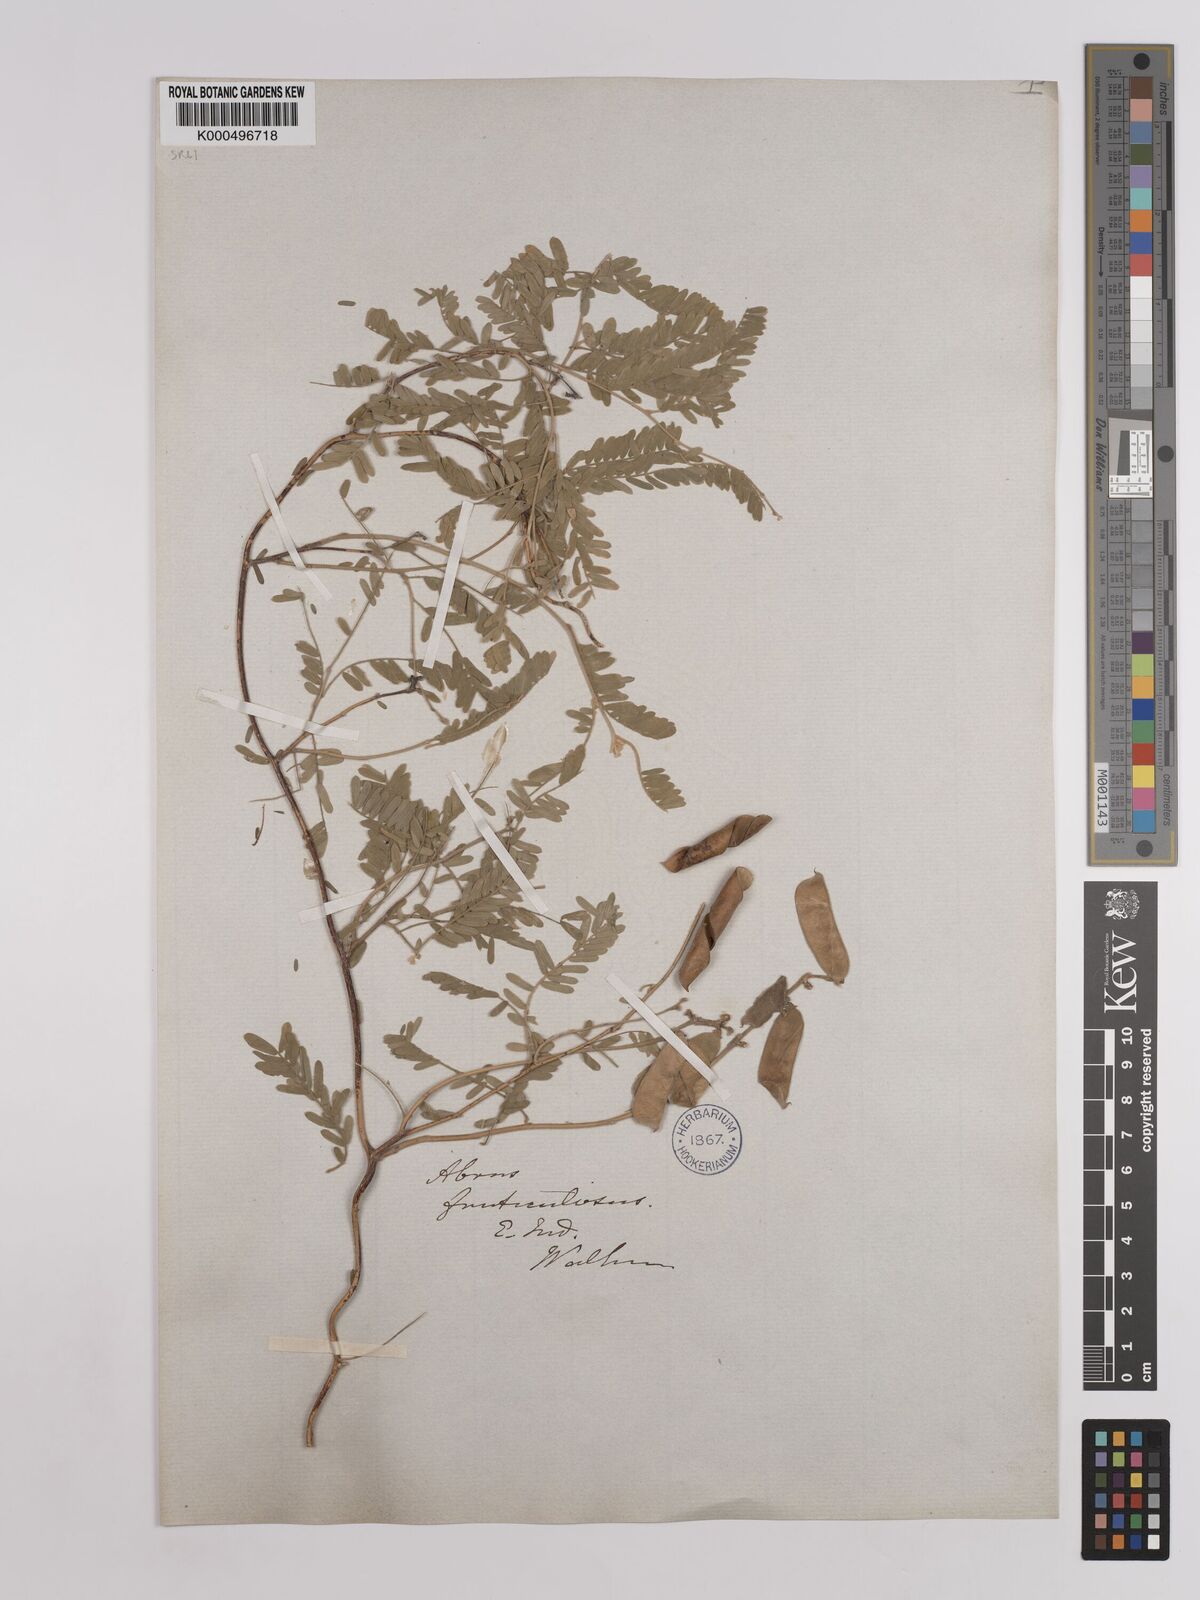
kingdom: Plantae
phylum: Tracheophyta
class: Magnoliopsida
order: Fabales
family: Fabaceae
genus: Abrus
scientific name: Abrus fruticulosus
